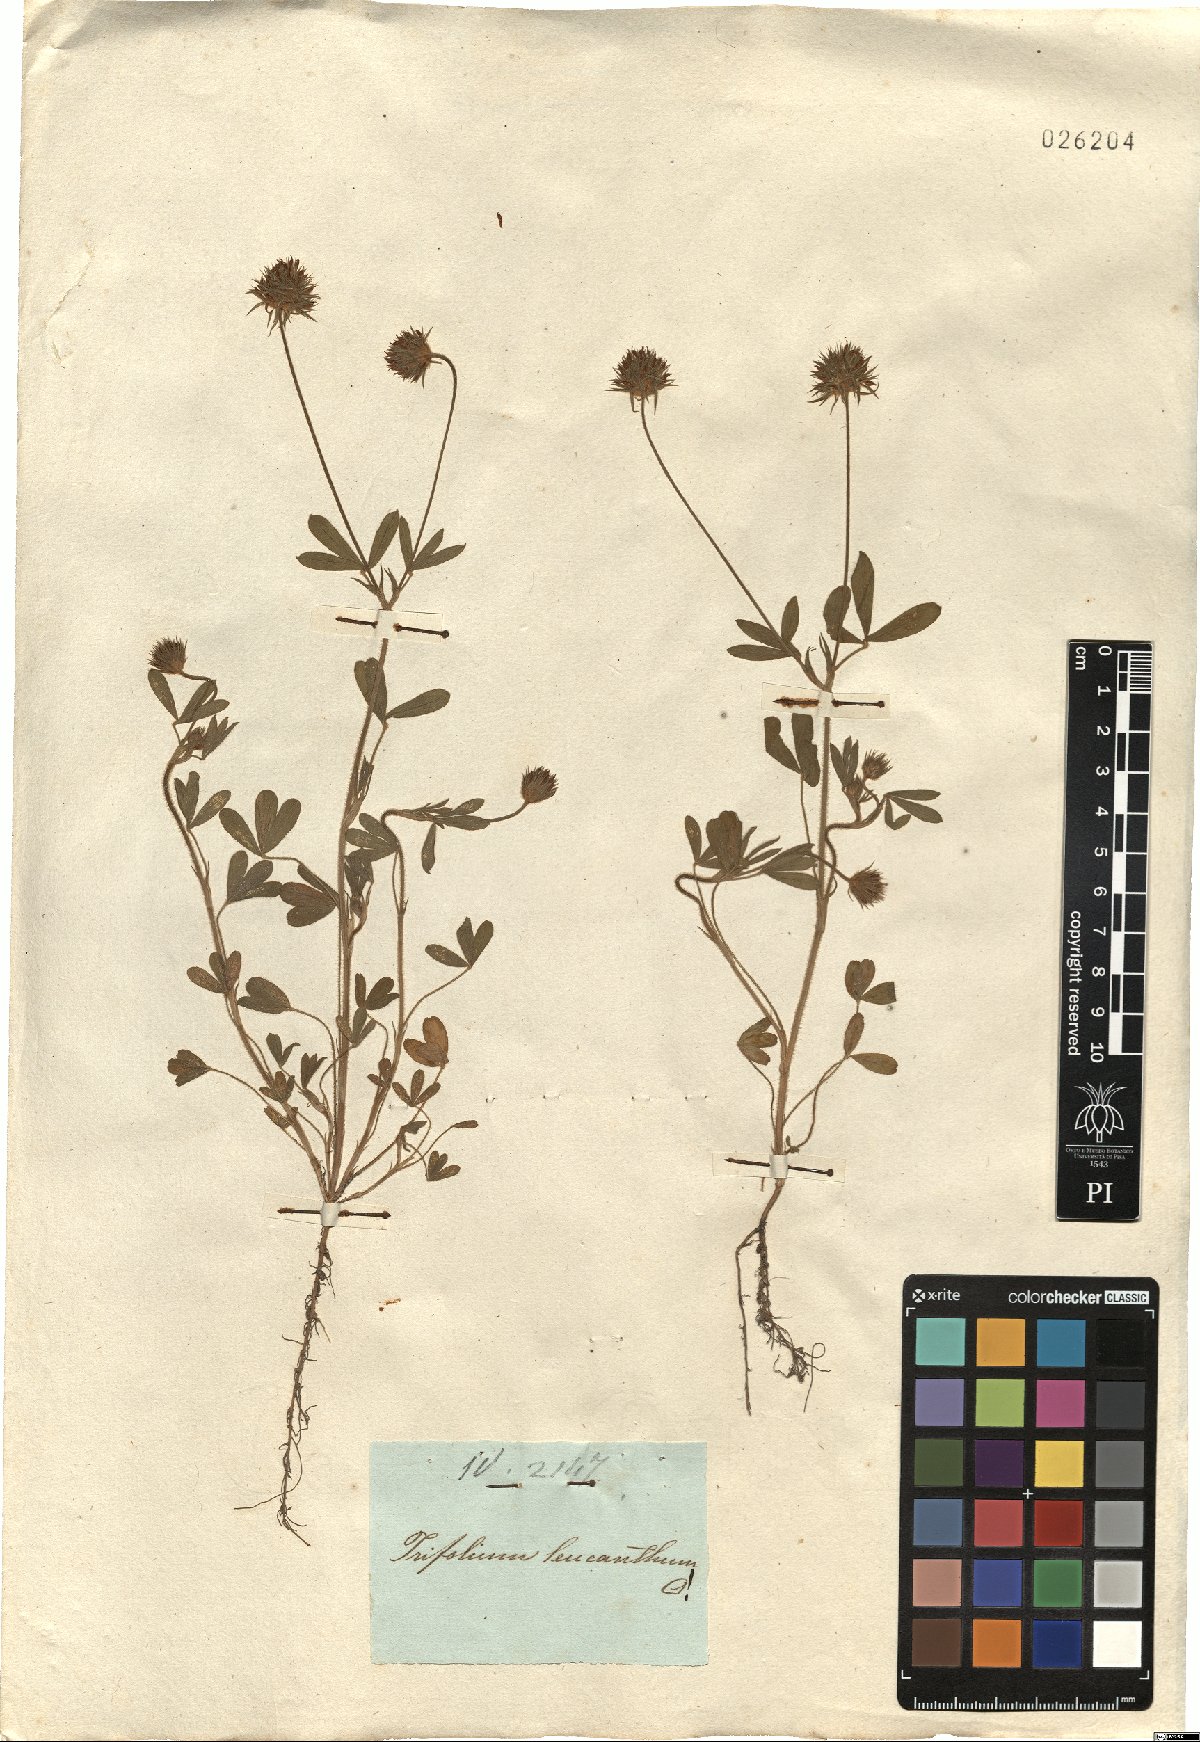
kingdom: Plantae
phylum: Tracheophyta
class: Magnoliopsida
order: Fabales
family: Fabaceae
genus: Trifolium
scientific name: Trifolium leucanthum
